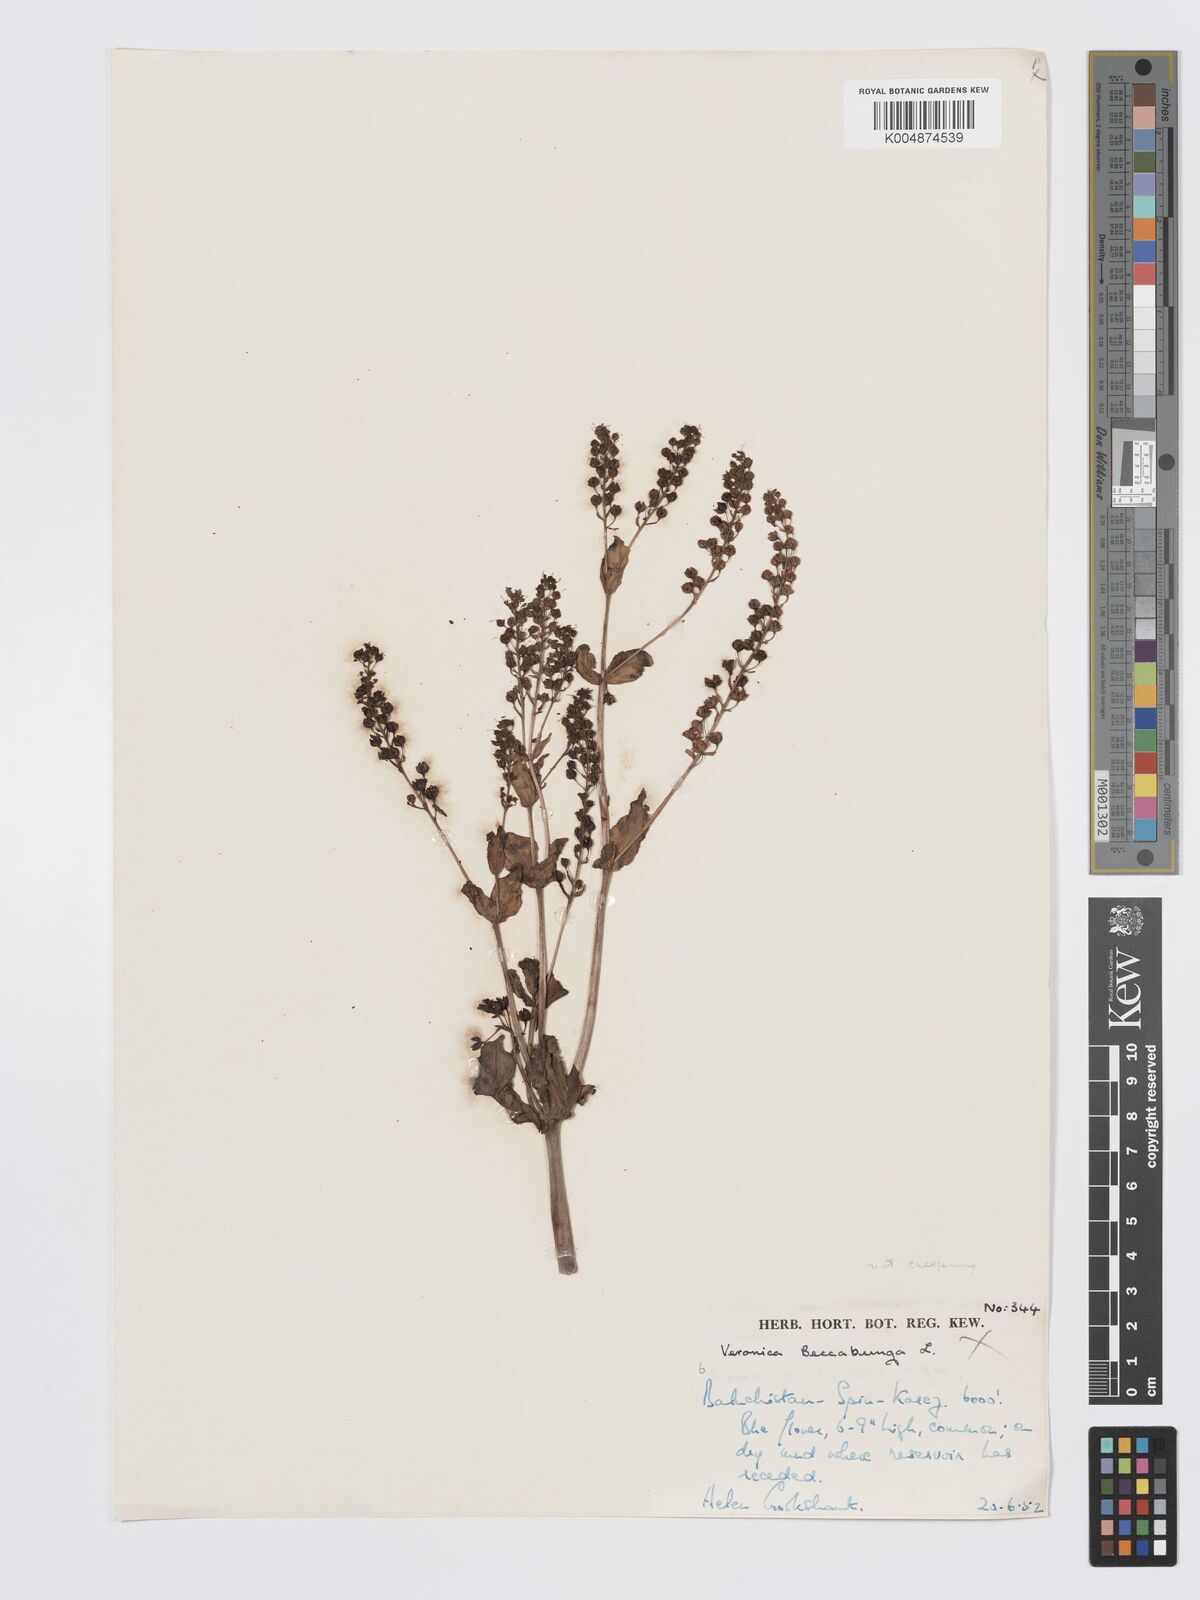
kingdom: Plantae
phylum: Tracheophyta
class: Magnoliopsida
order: Lamiales
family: Plantaginaceae
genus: Veronica
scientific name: Veronica undulata
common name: Undulate speedwell
